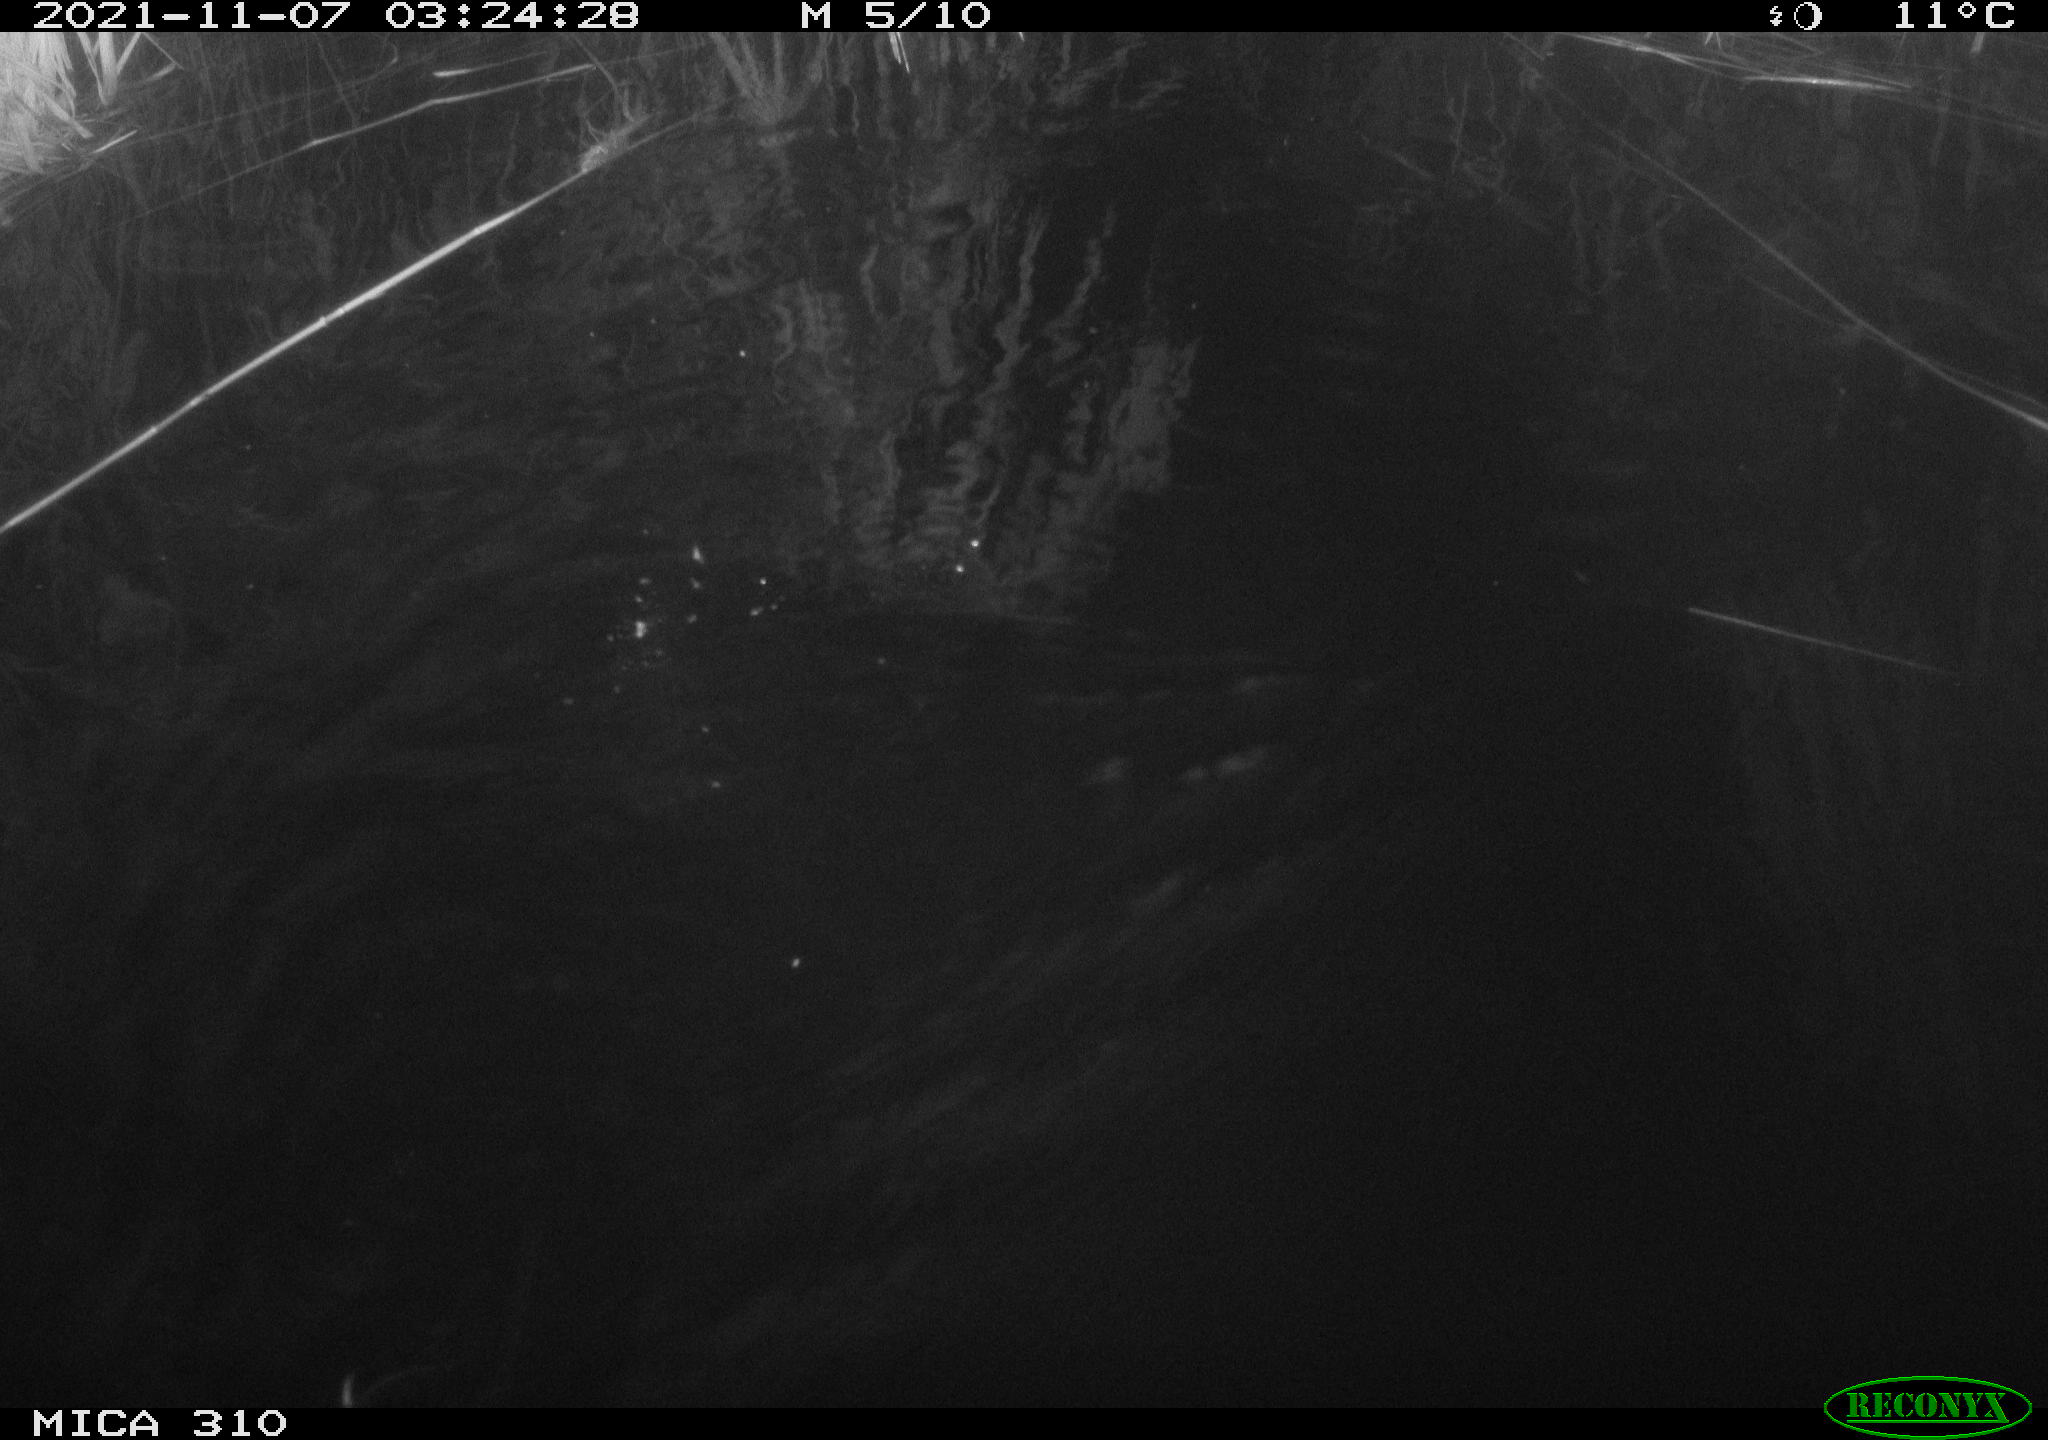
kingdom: Animalia
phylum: Chordata
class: Mammalia
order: Rodentia
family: Cricetidae
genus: Ondatra
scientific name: Ondatra zibethicus
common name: Muskrat
